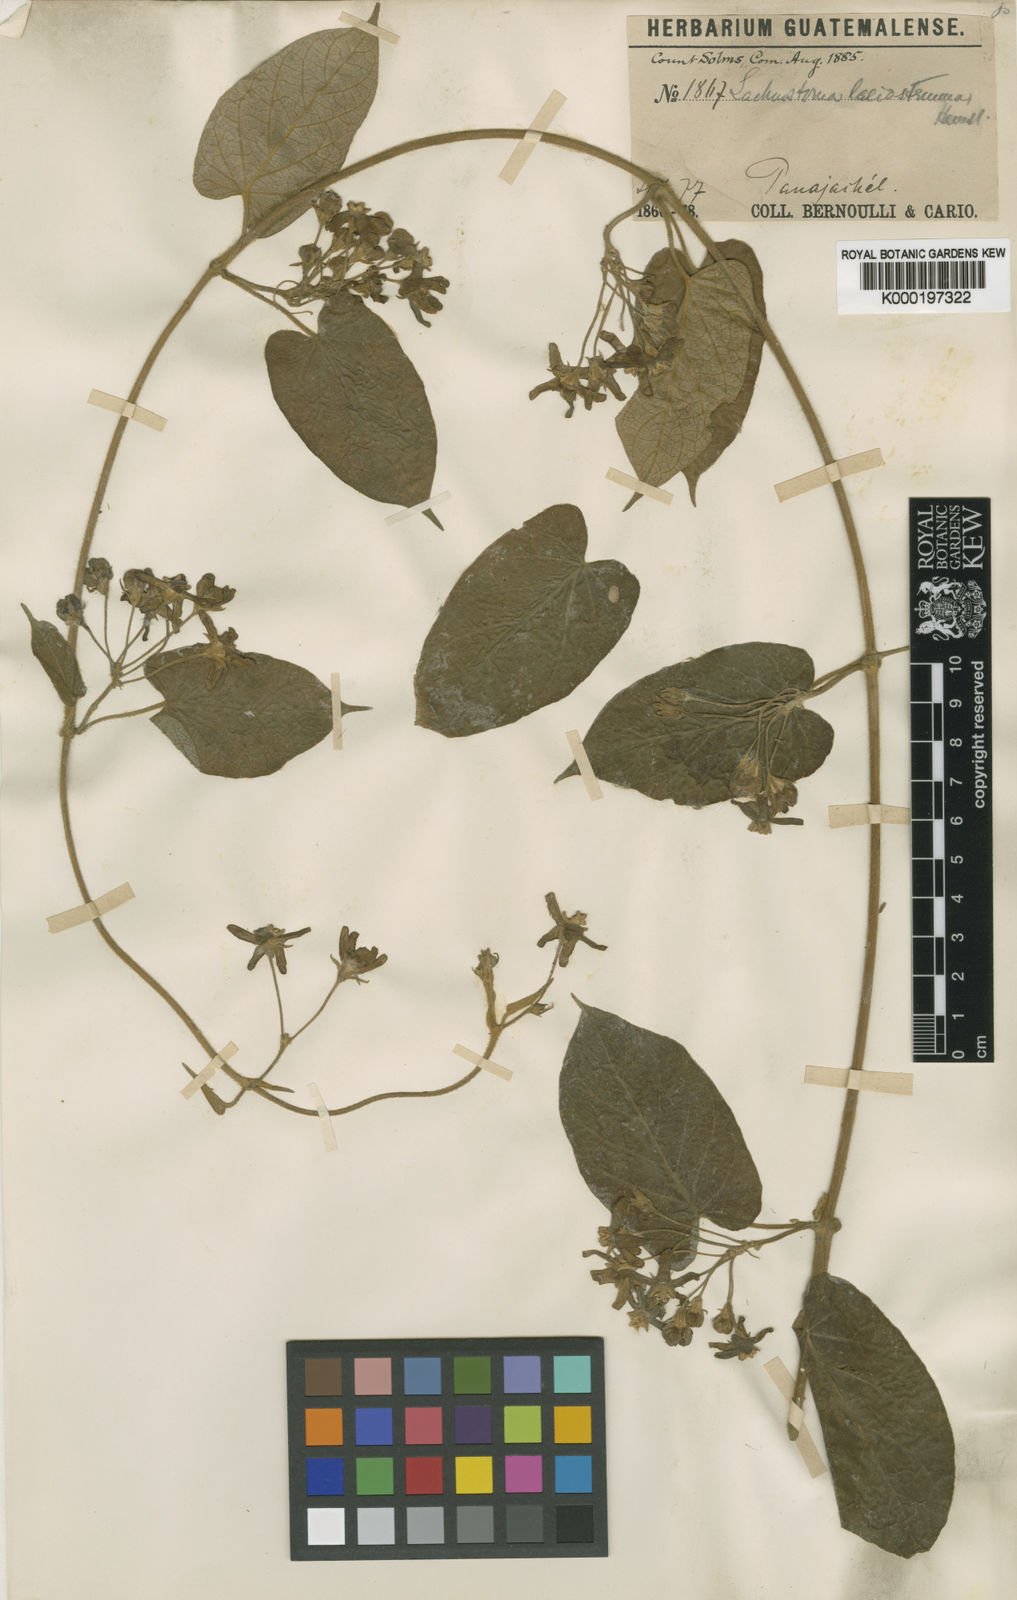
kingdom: Plantae
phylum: Tracheophyta
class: Magnoliopsida
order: Gentianales
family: Apocynaceae
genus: Gonolobus
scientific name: Gonolobus lasiostemma
